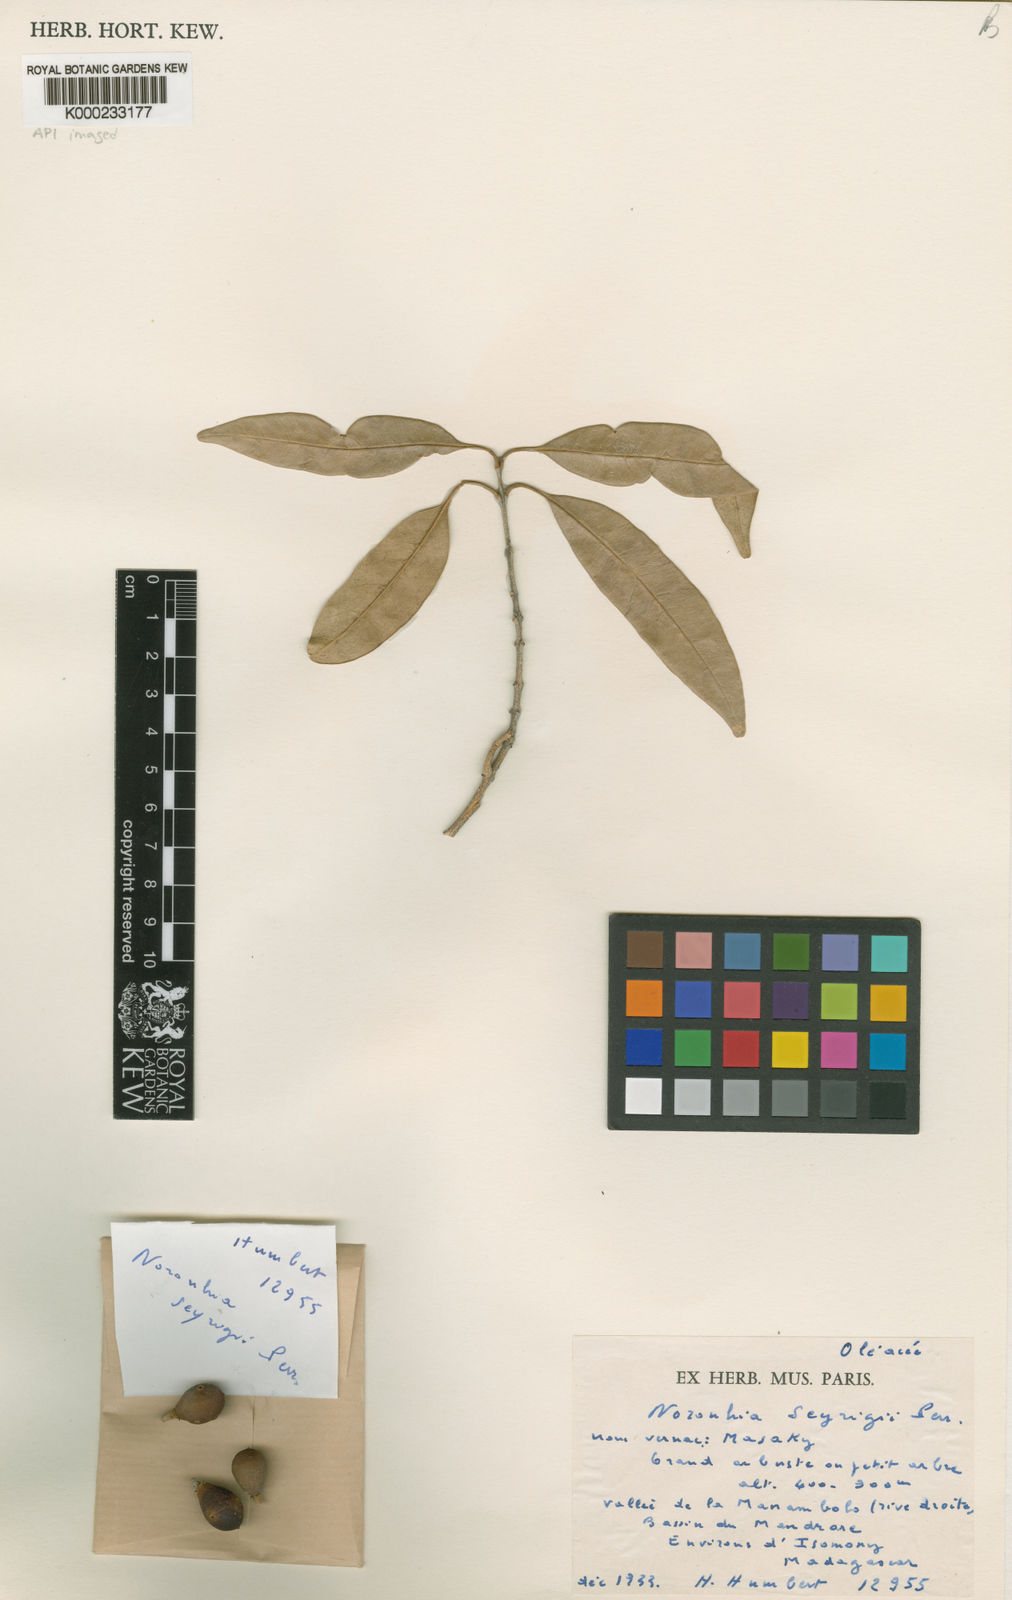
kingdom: Plantae
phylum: Tracheophyta
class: Magnoliopsida
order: Lamiales
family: Oleaceae
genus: Noronhia
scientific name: Noronhia seyrigii
